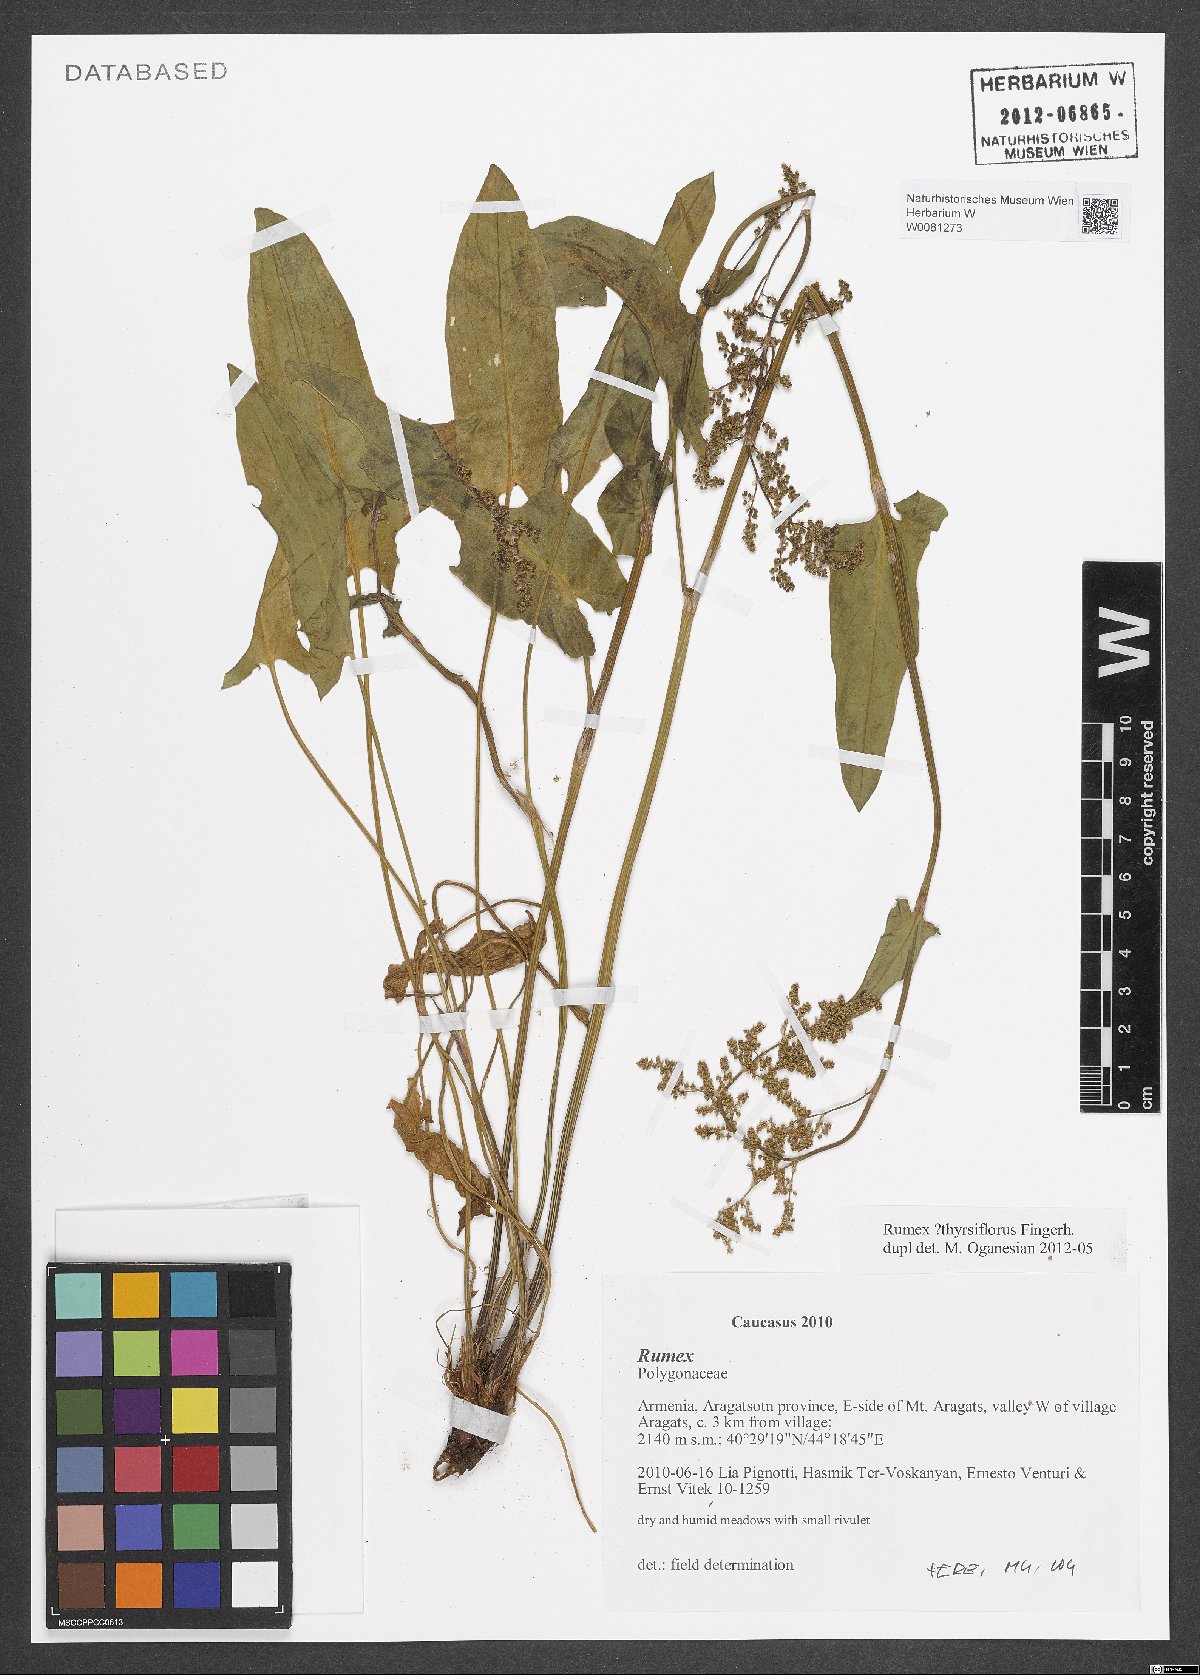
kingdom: Plantae
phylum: Tracheophyta
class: Magnoliopsida
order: Caryophyllales
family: Polygonaceae
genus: Rumex
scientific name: Rumex thyrsiflorus
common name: Garden sorrel
